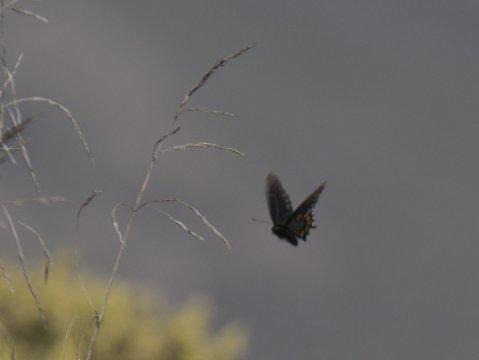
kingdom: Animalia
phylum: Arthropoda
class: Insecta
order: Lepidoptera
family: Papilionidae
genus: Battus
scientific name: Battus philenor
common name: Pipevine Swallowtail
